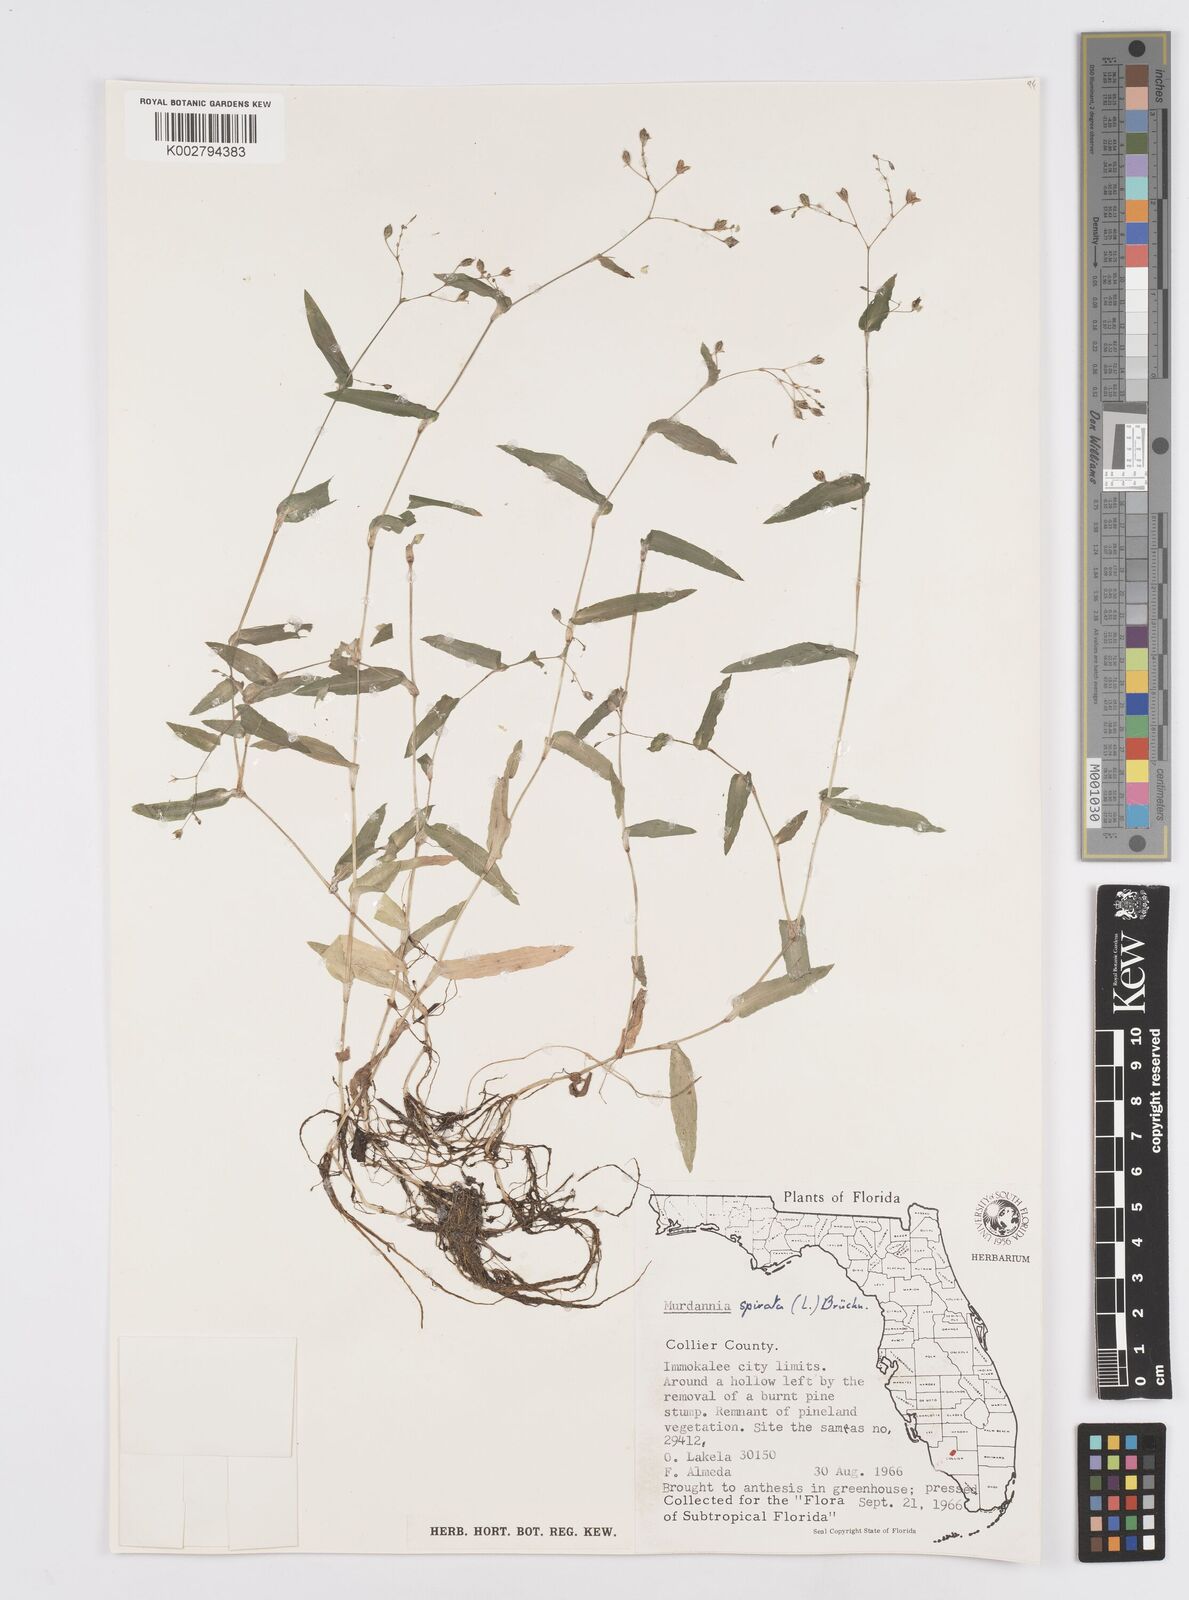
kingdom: Plantae
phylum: Tracheophyta
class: Liliopsida
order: Commelinales
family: Commelinaceae
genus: Murdannia
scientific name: Murdannia spirata
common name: Asiatic dewflower
